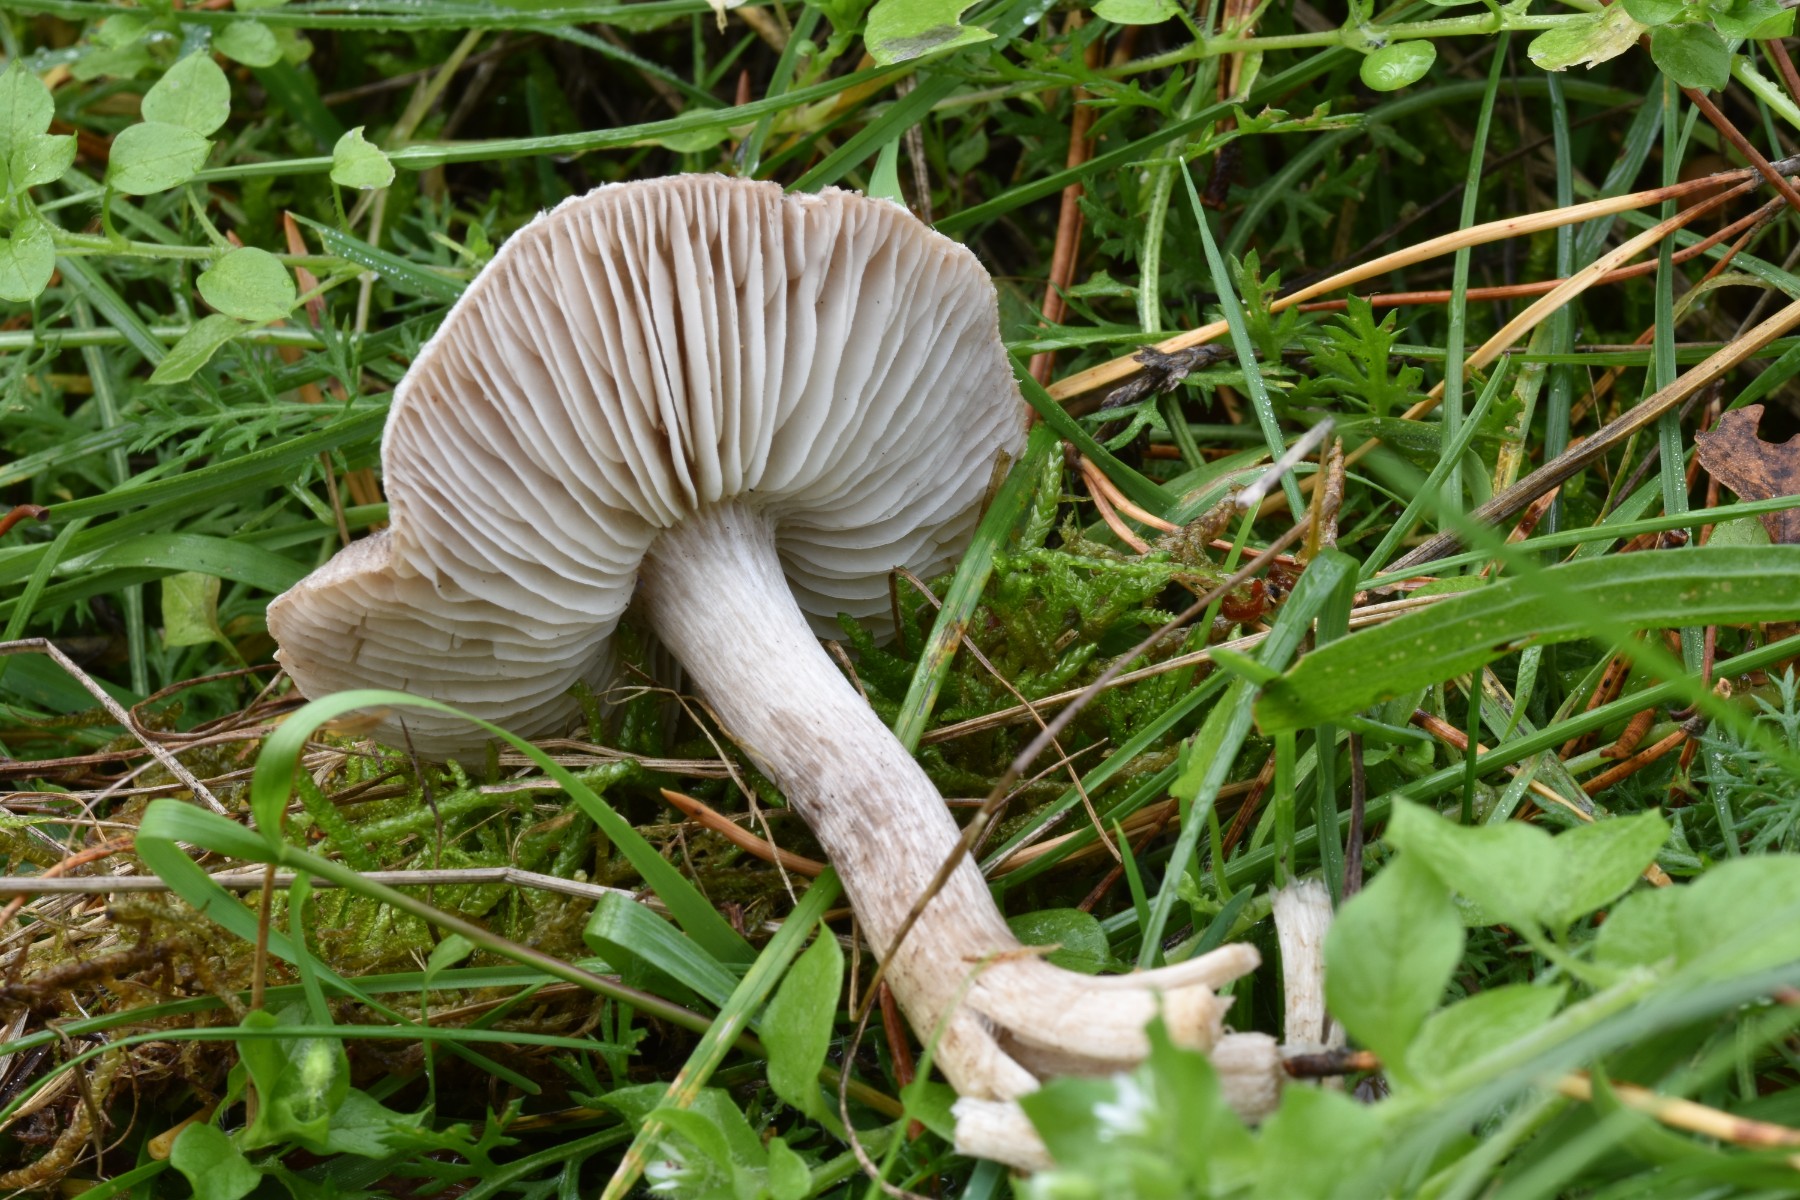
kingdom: Fungi
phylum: Basidiomycota
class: Agaricomycetes
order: Agaricales
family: Tricholomataceae
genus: Tricholoma
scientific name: Tricholoma terreum
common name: jordfarvet ridderhat
